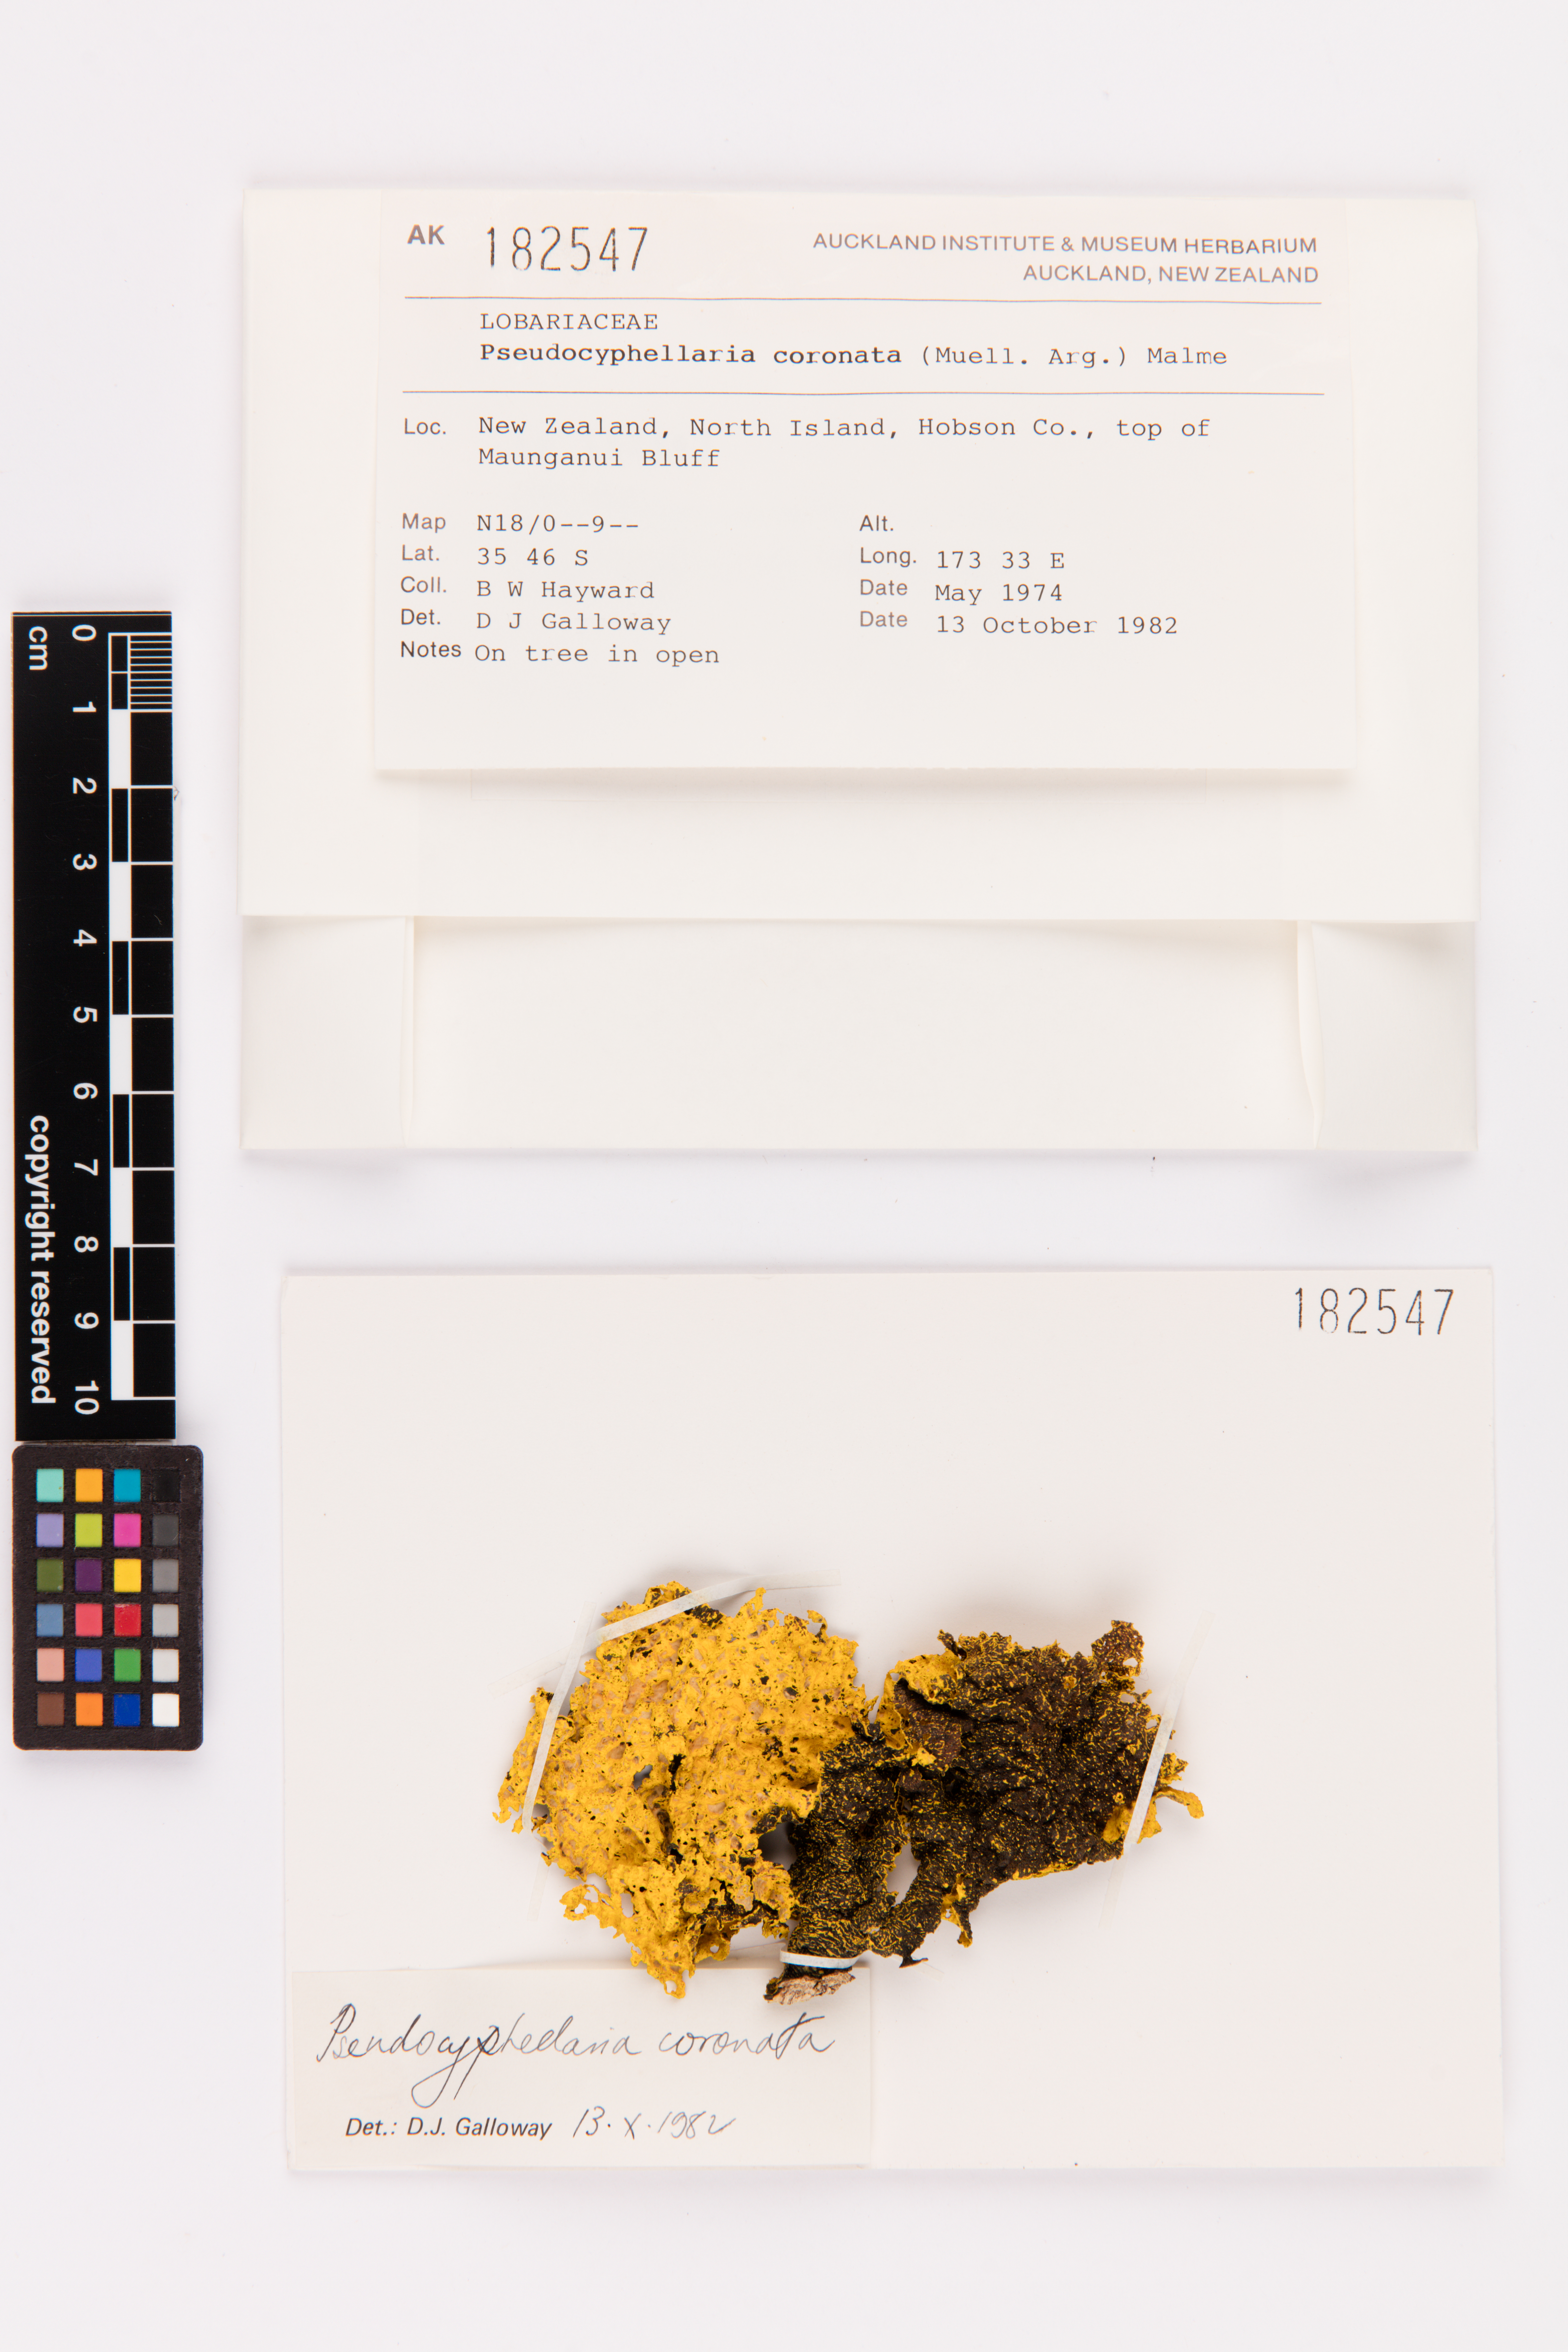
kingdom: Fungi
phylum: Ascomycota
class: Lecanoromycetes
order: Peltigerales
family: Lobariaceae
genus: Yarrumia
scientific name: Yarrumia coronata
